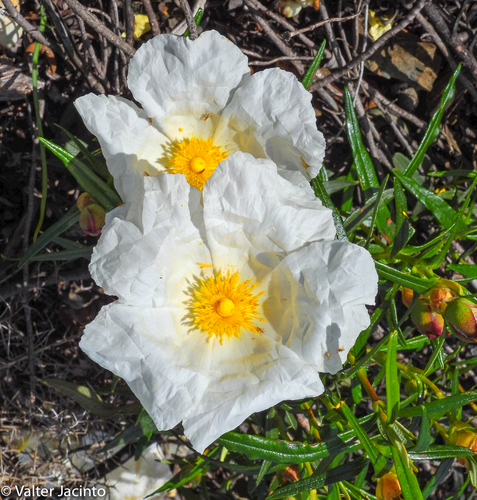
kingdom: Plantae
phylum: Tracheophyta
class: Magnoliopsida
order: Malvales
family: Cistaceae
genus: Cistus
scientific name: Cistus ladanifer
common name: Common gum cistus
